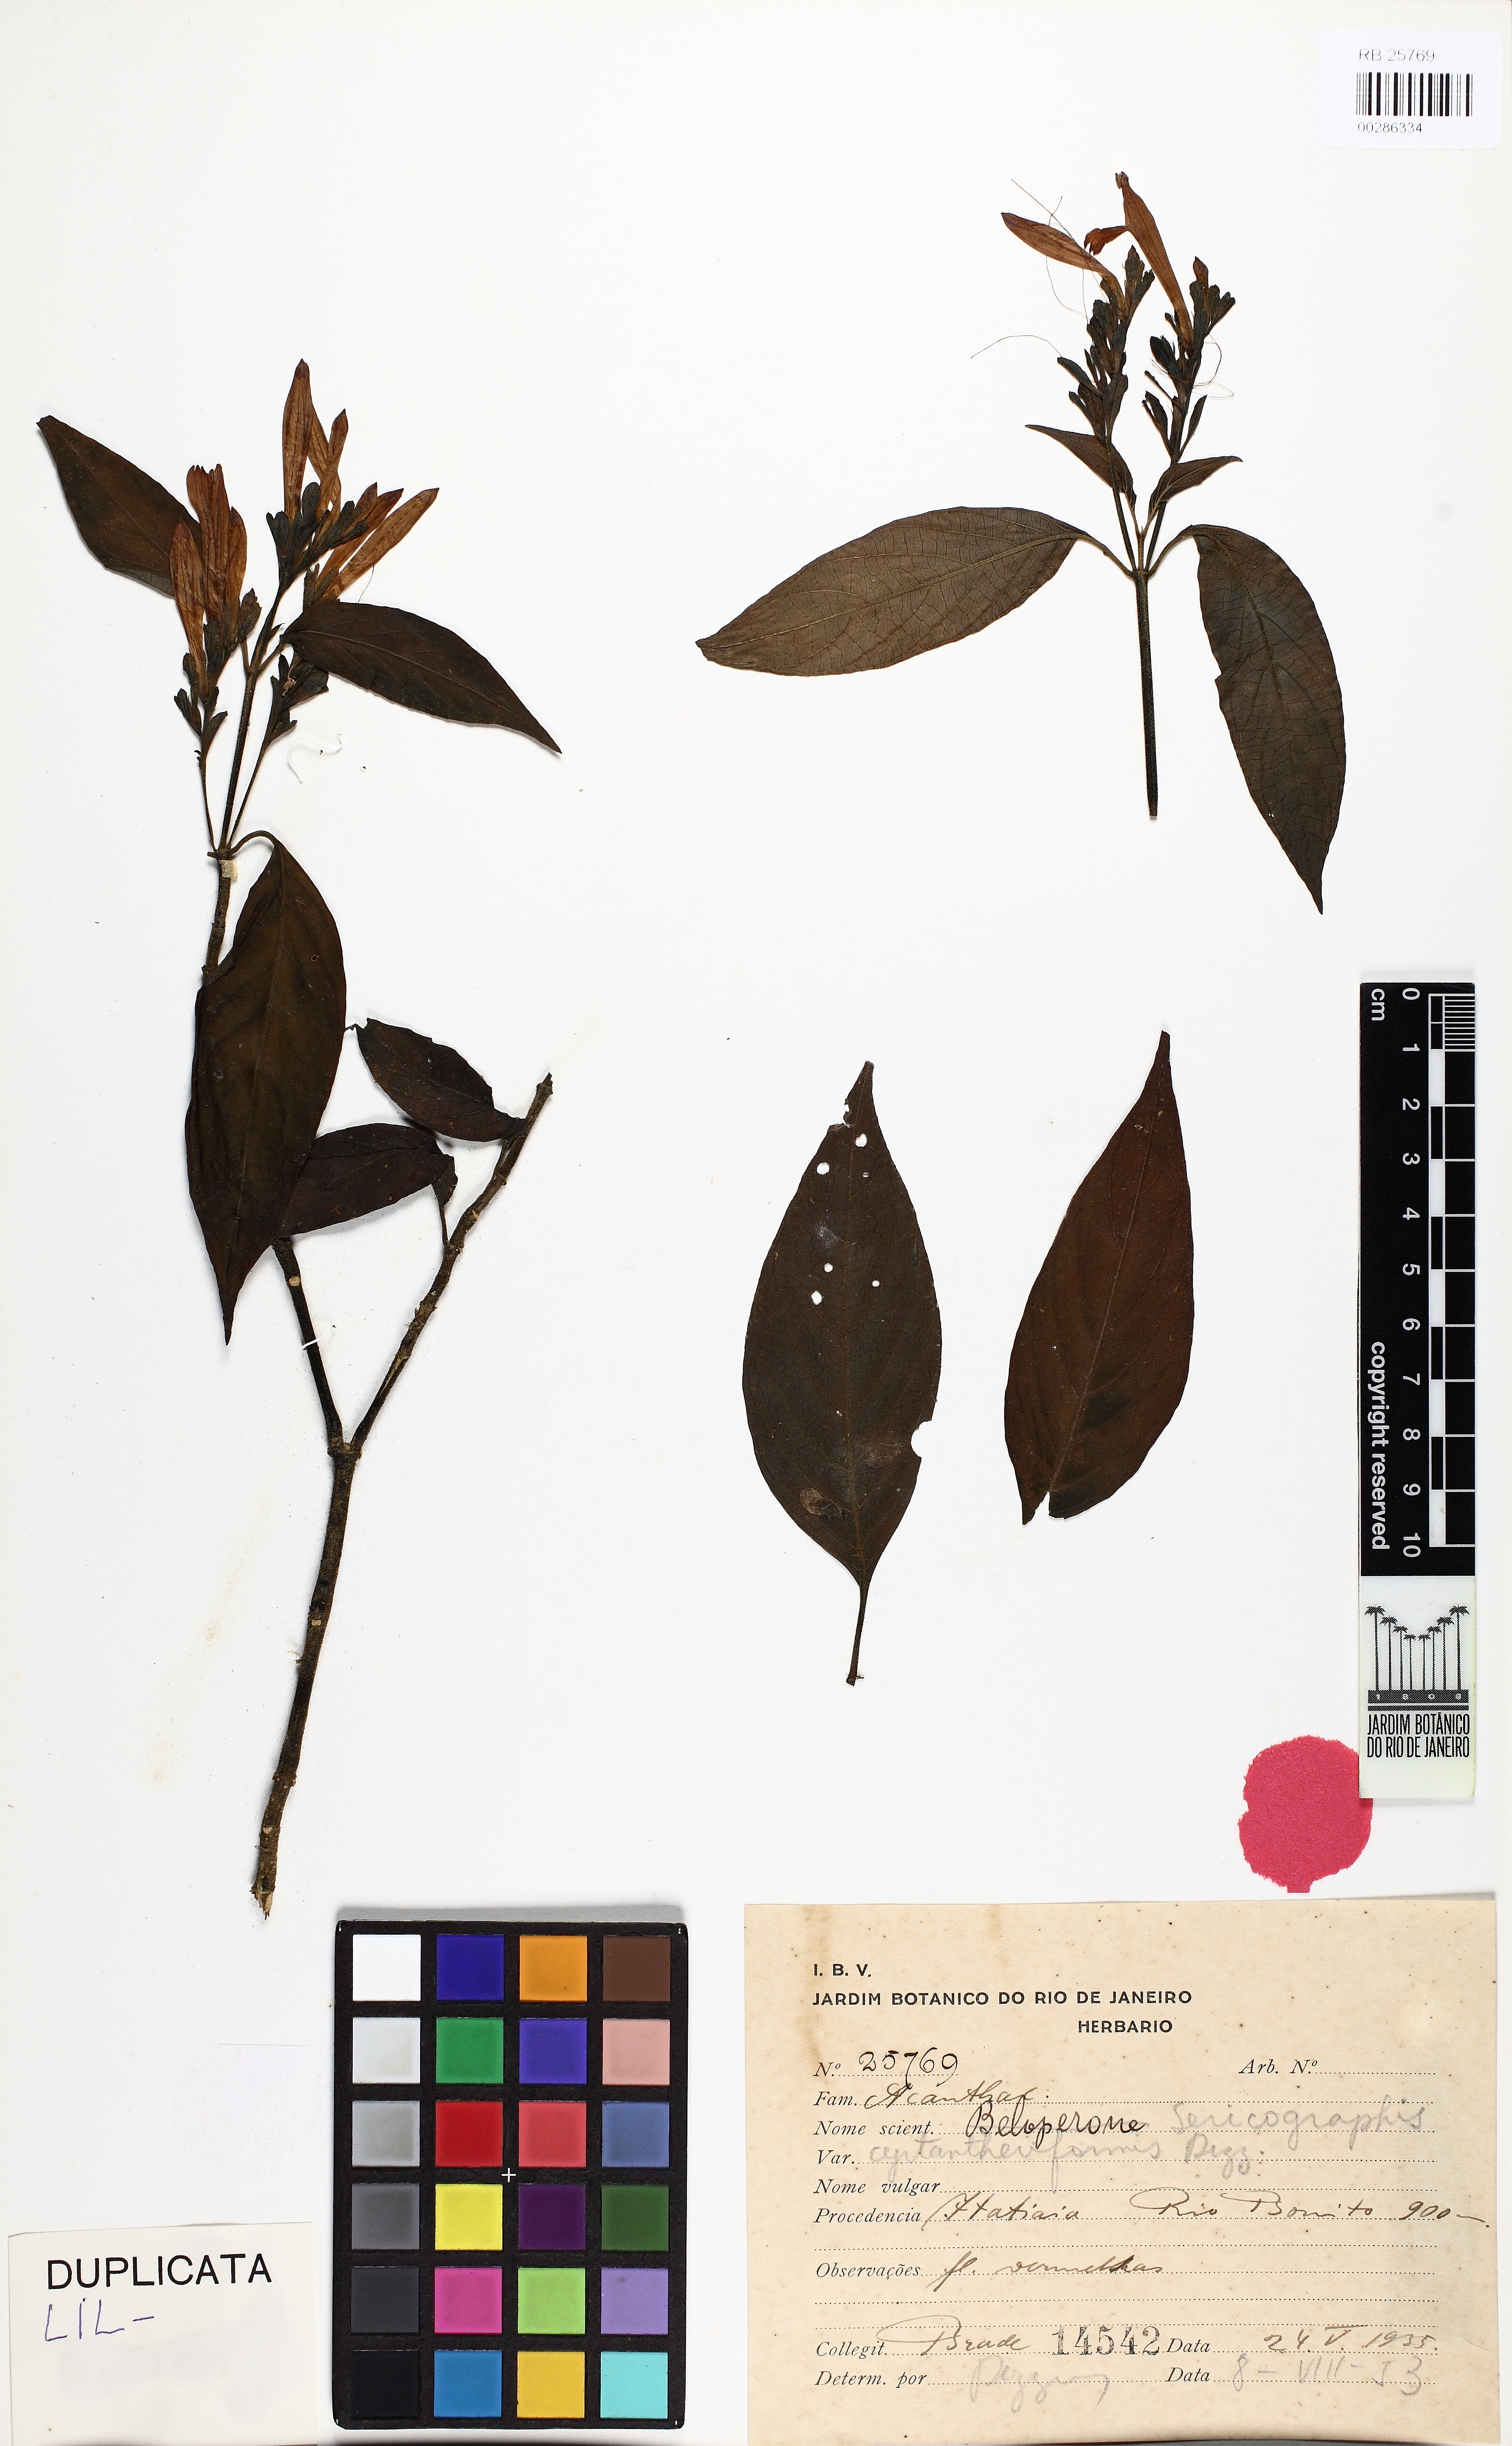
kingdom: Plantae
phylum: Tracheophyta
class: Magnoliopsida
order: Lamiales
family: Acanthaceae
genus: Justicia
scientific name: Justicia cyrtantheriformis
